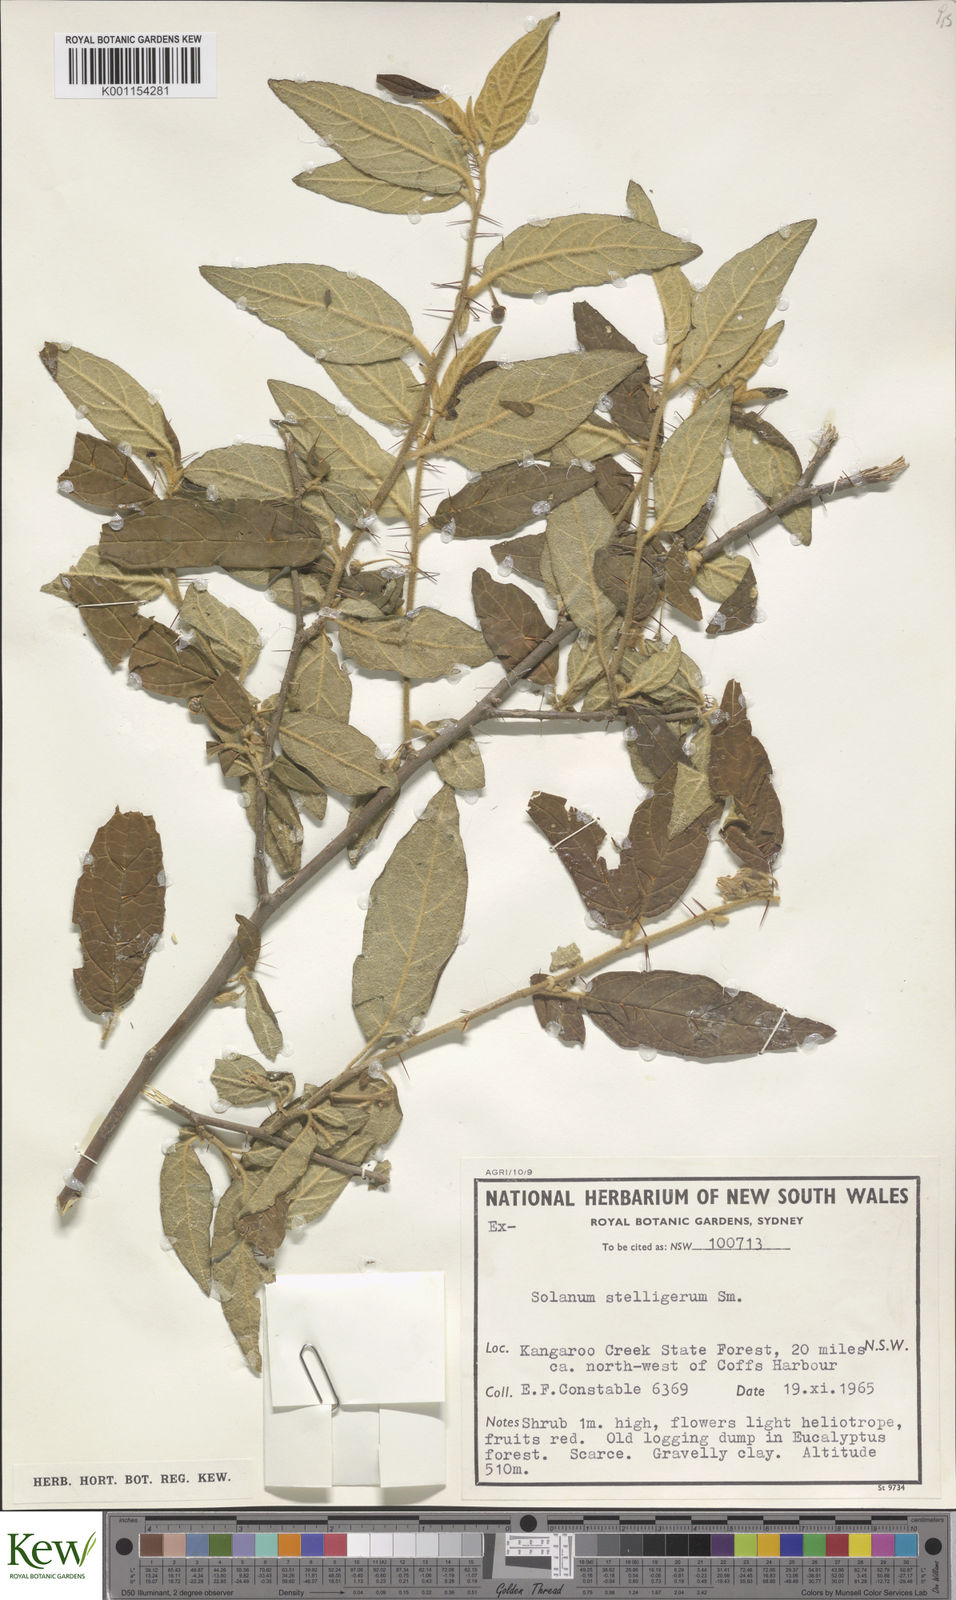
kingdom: Plantae
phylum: Tracheophyta
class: Magnoliopsida
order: Solanales
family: Solanaceae
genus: Solanum
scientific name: Solanum stelligerum
